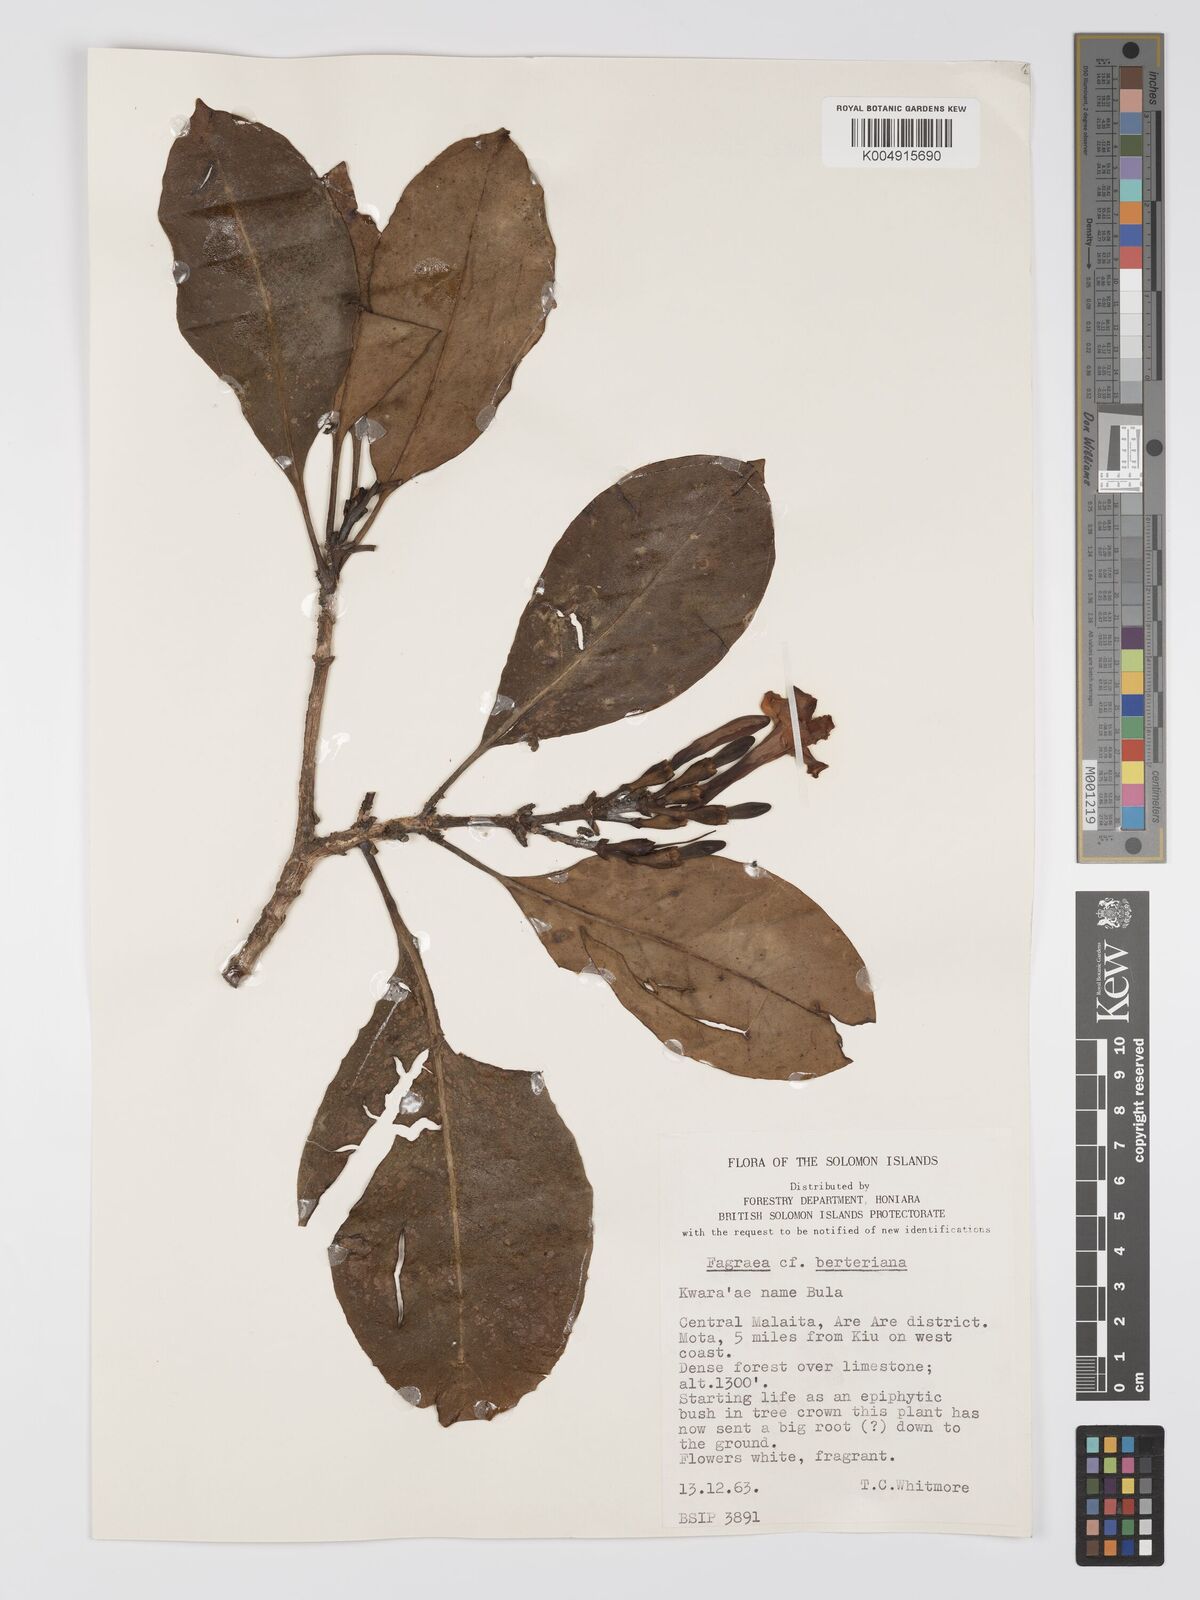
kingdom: Plantae
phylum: Tracheophyta
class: Magnoliopsida
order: Gentianales
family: Gentianaceae
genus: Fagraea
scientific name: Fagraea berteroana
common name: Cape jitta
